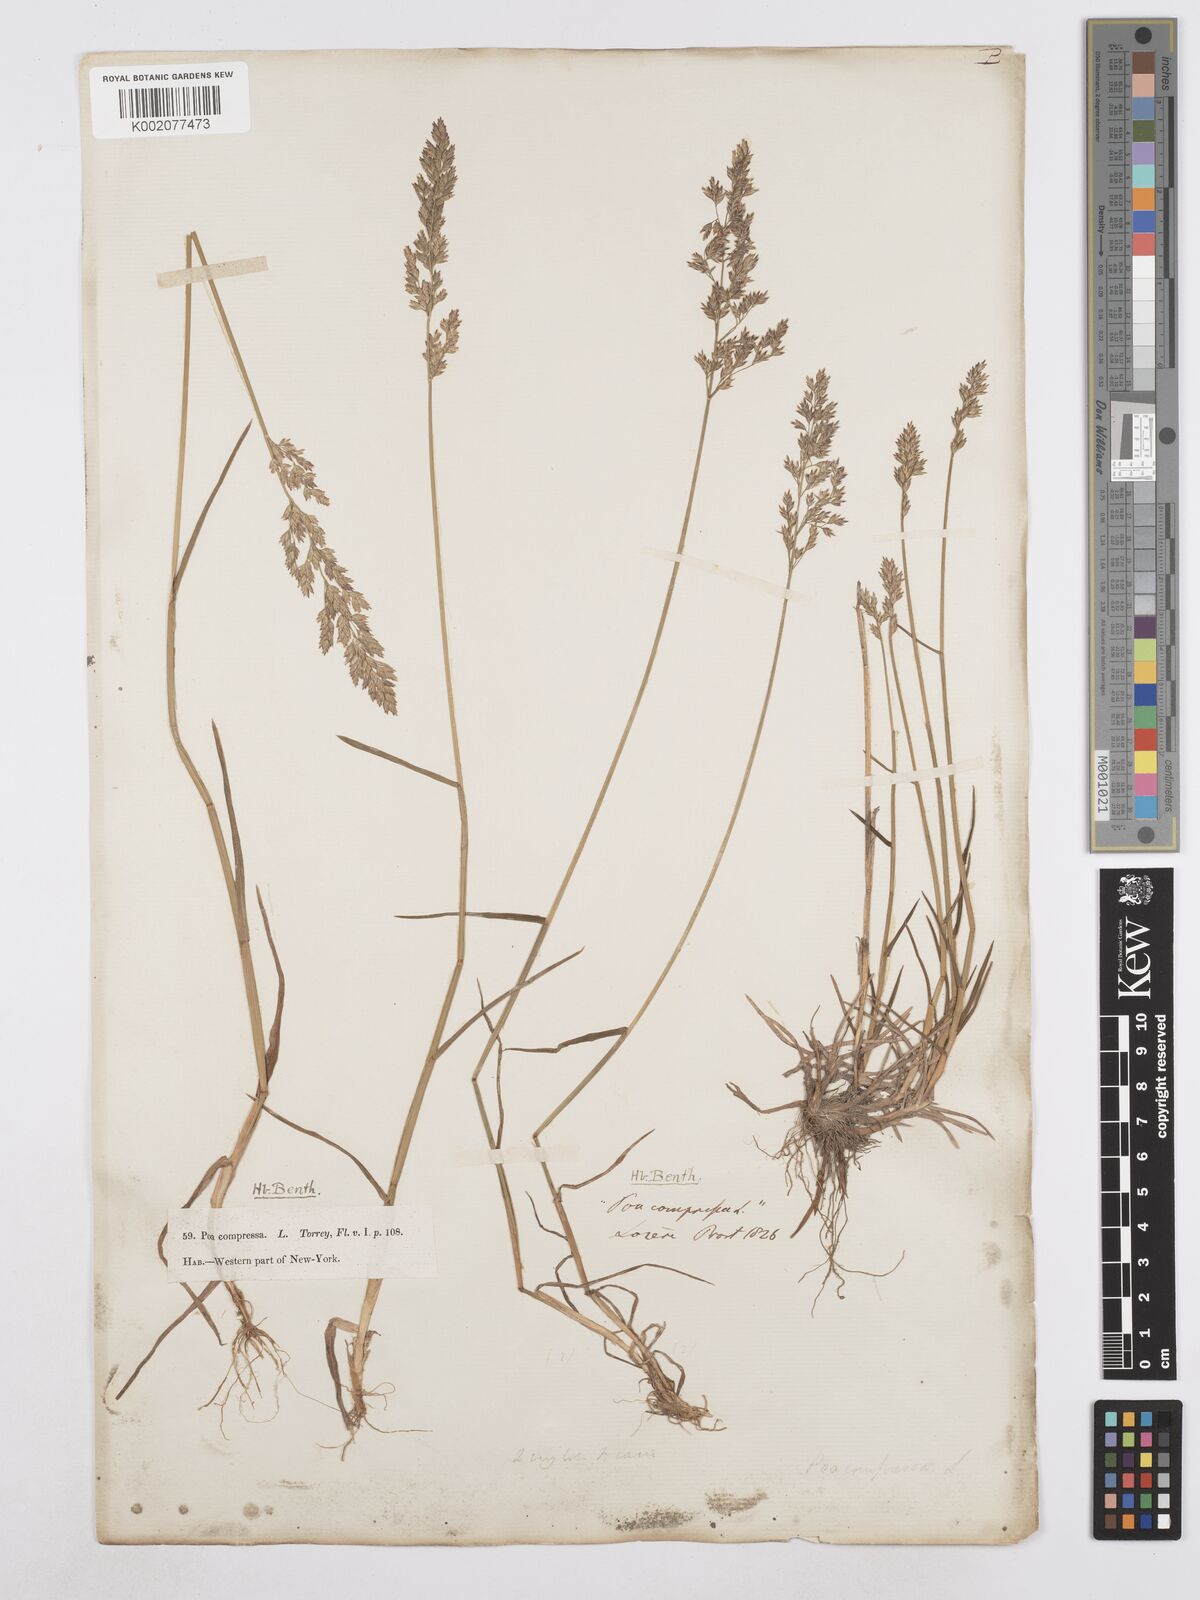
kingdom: Plantae
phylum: Tracheophyta
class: Liliopsida
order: Poales
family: Poaceae
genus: Poa
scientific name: Poa compressa
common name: Canada bluegrass
